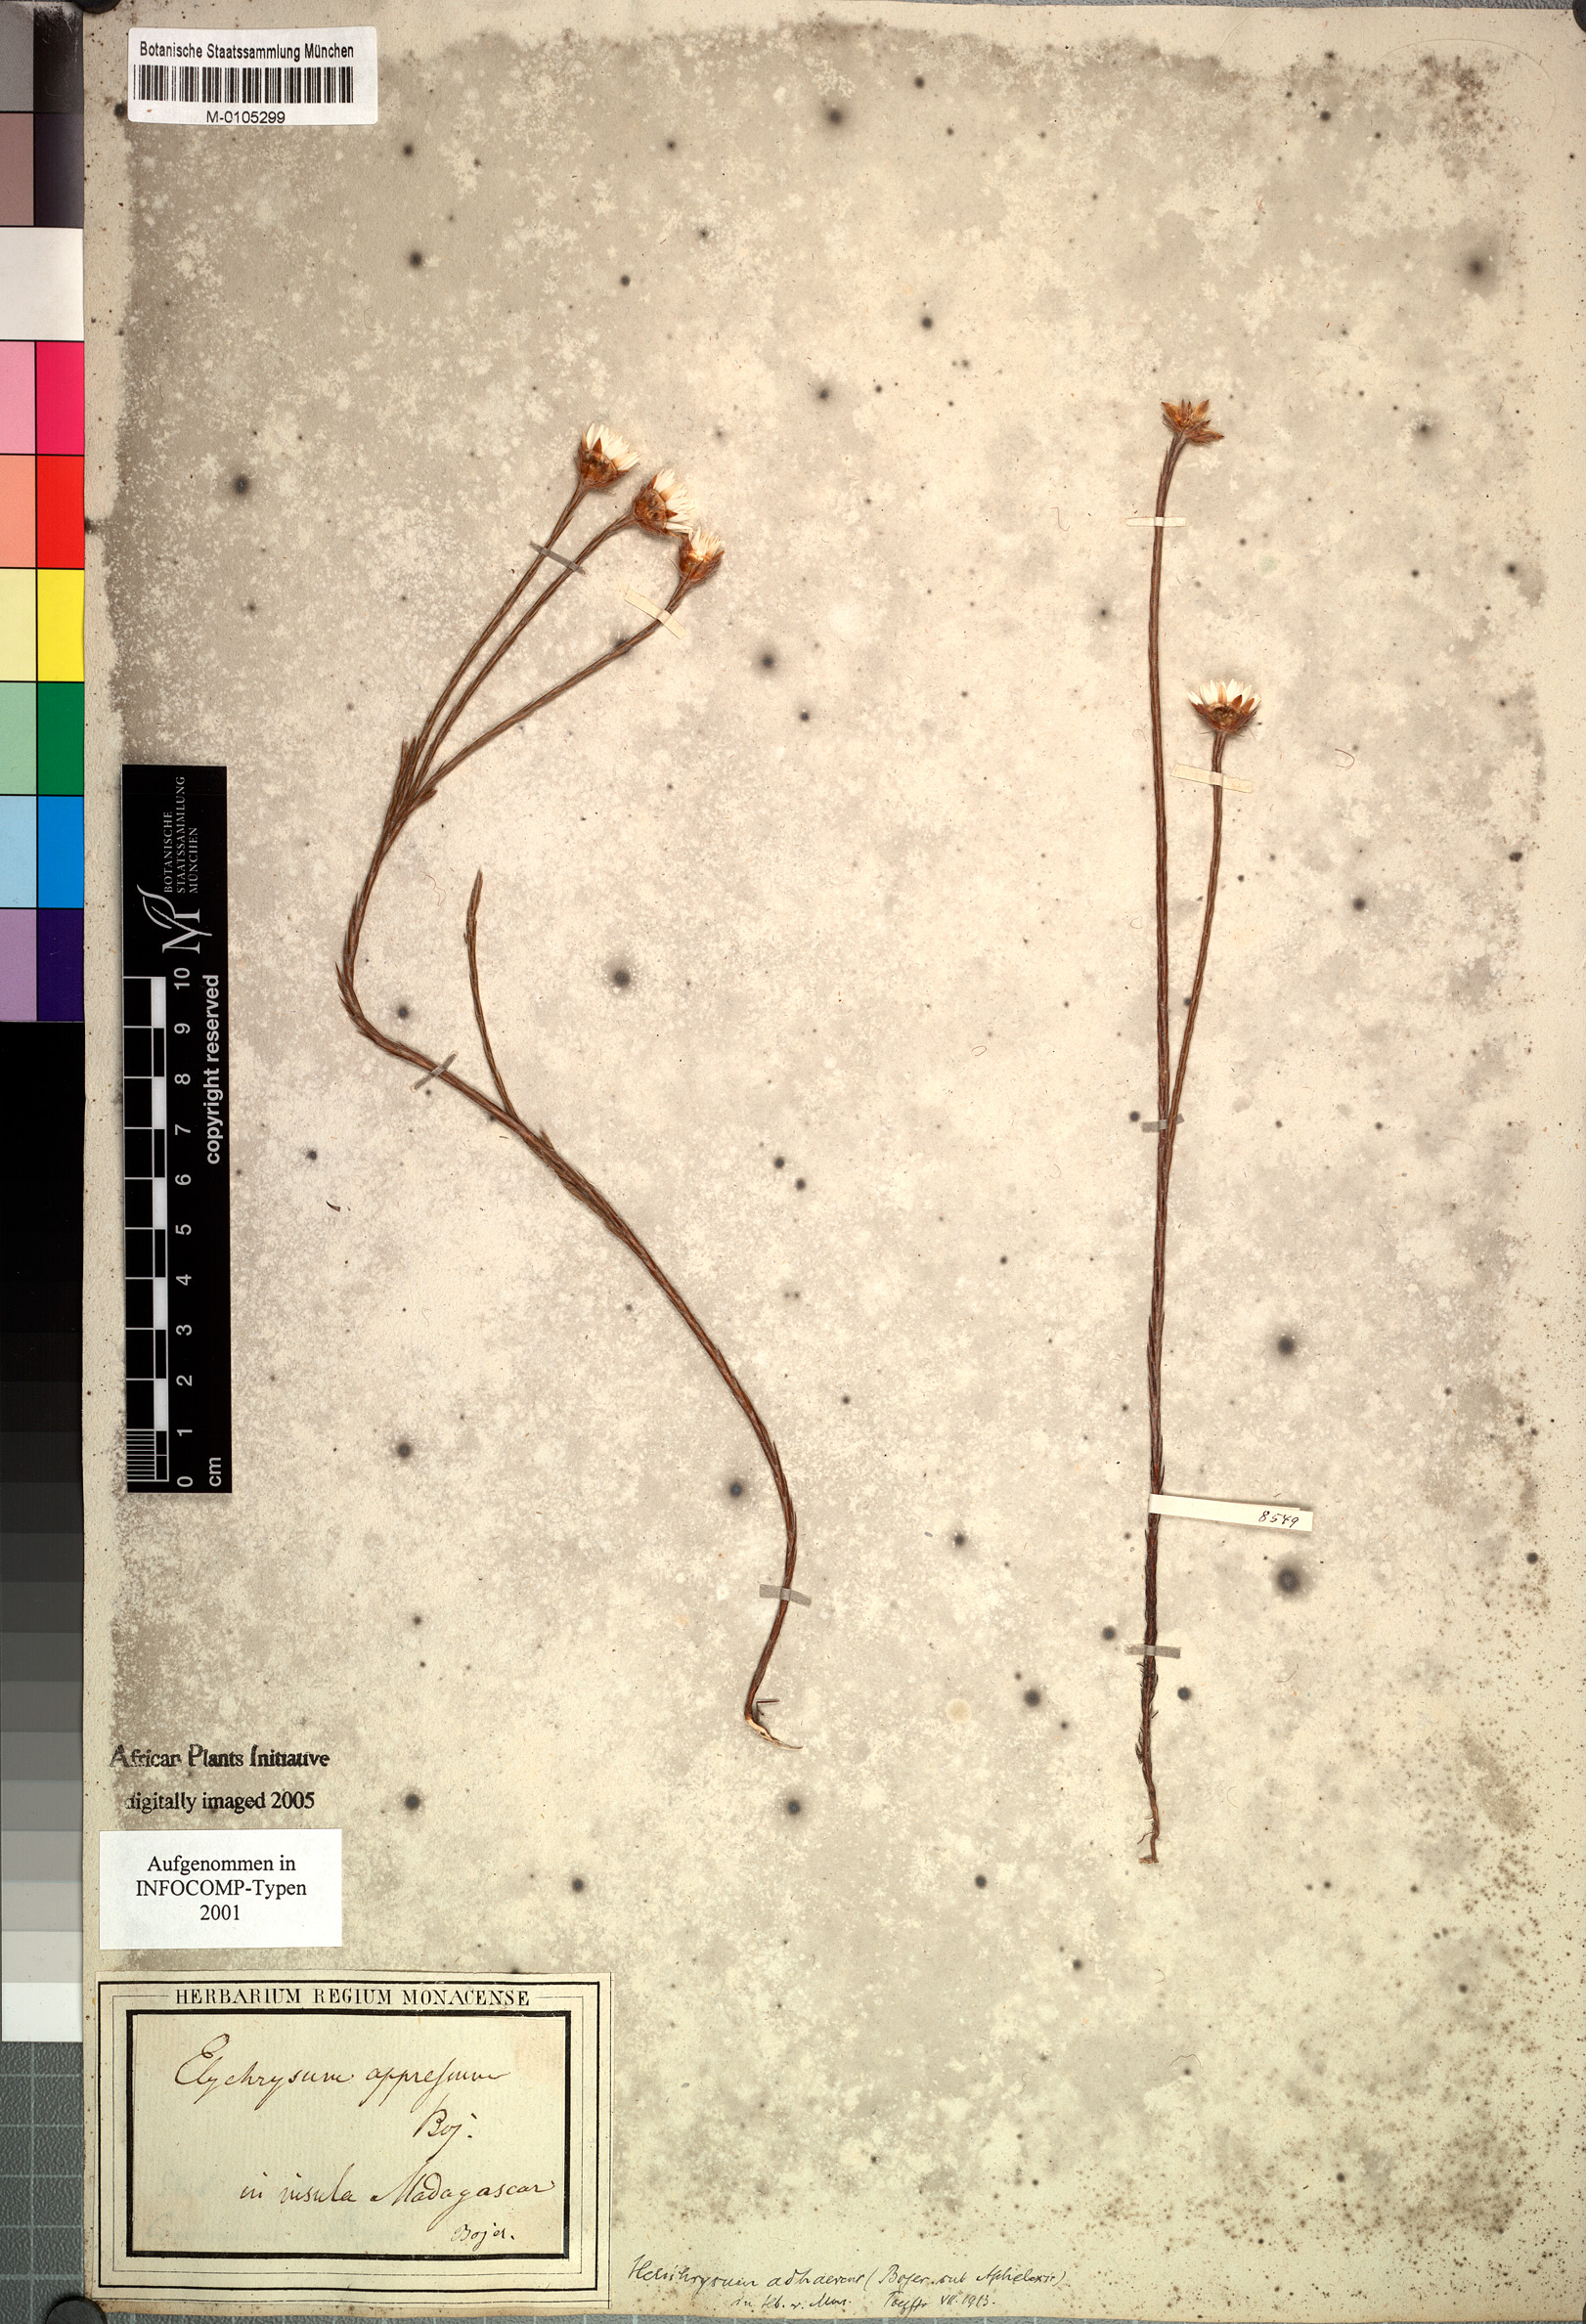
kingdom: Plantae
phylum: Tracheophyta
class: Magnoliopsida
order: Asterales
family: Asteraceae
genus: Aphelexis
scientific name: Aphelexis adhaerens
